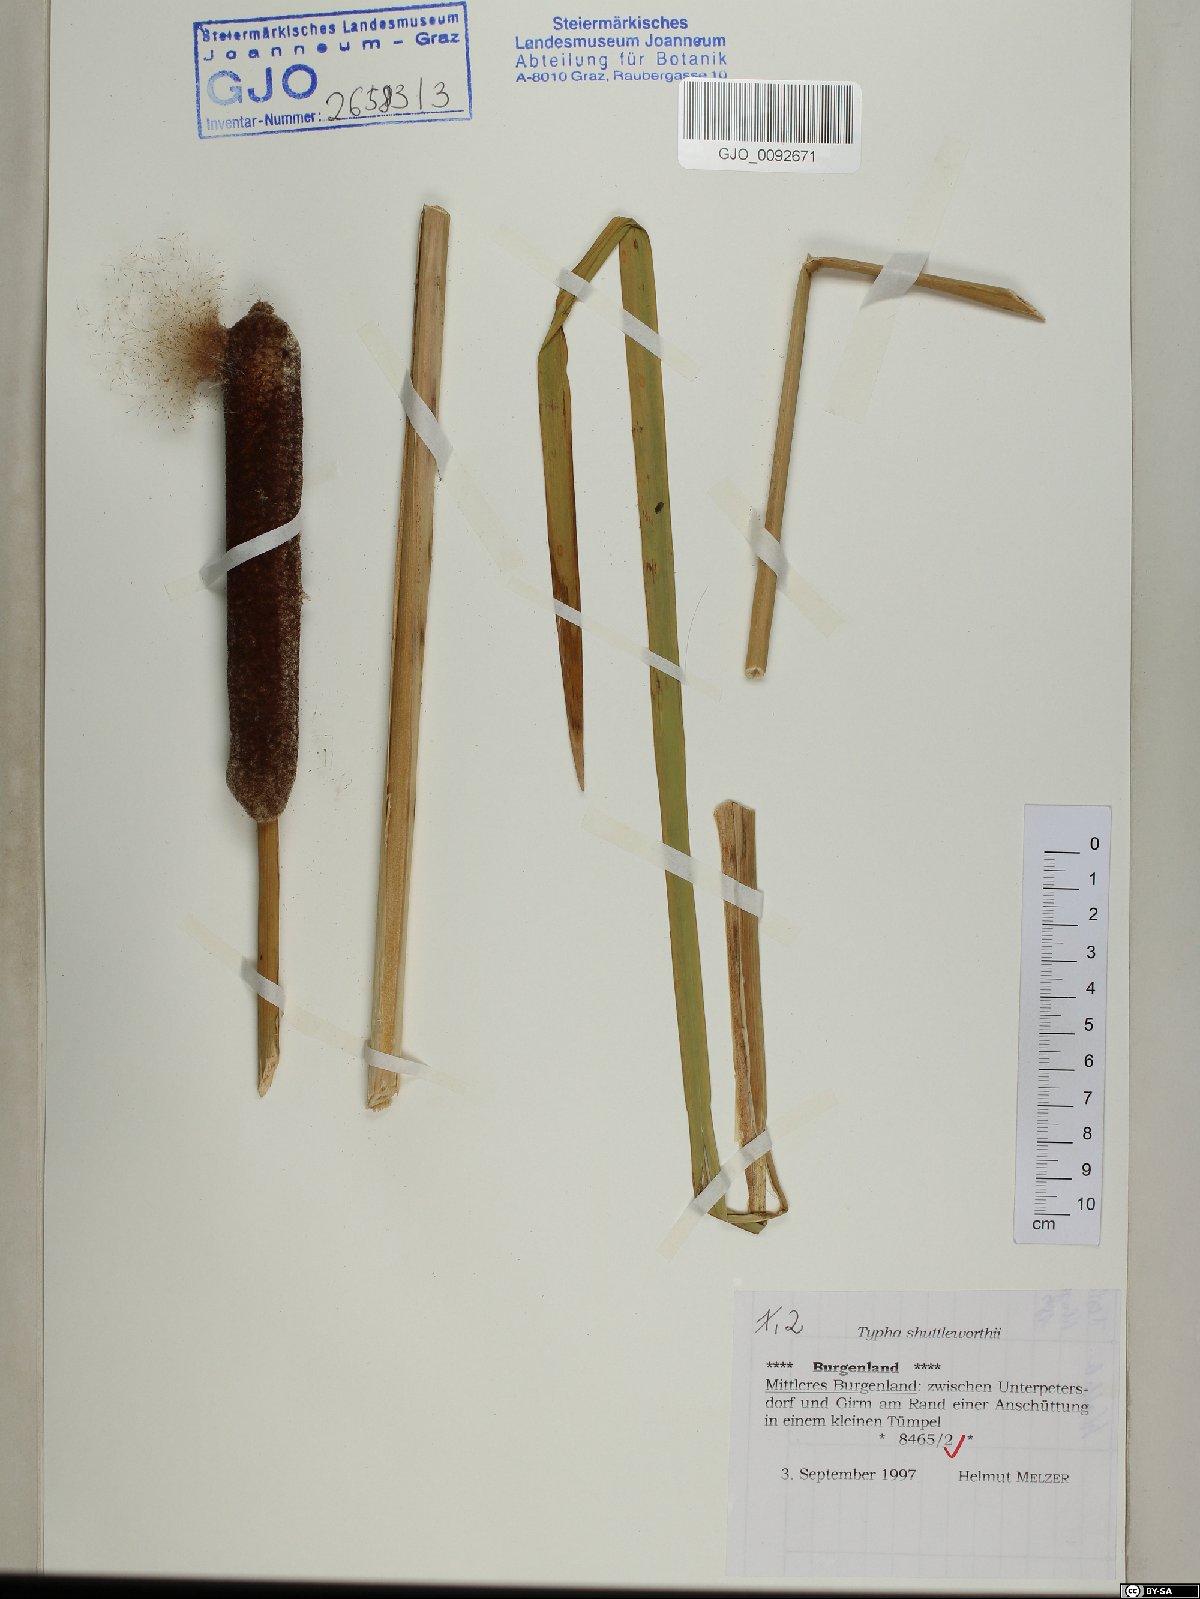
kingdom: Plantae
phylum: Tracheophyta
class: Liliopsida
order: Poales
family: Typhaceae
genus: Typha
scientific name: Typha shuttleworthii
